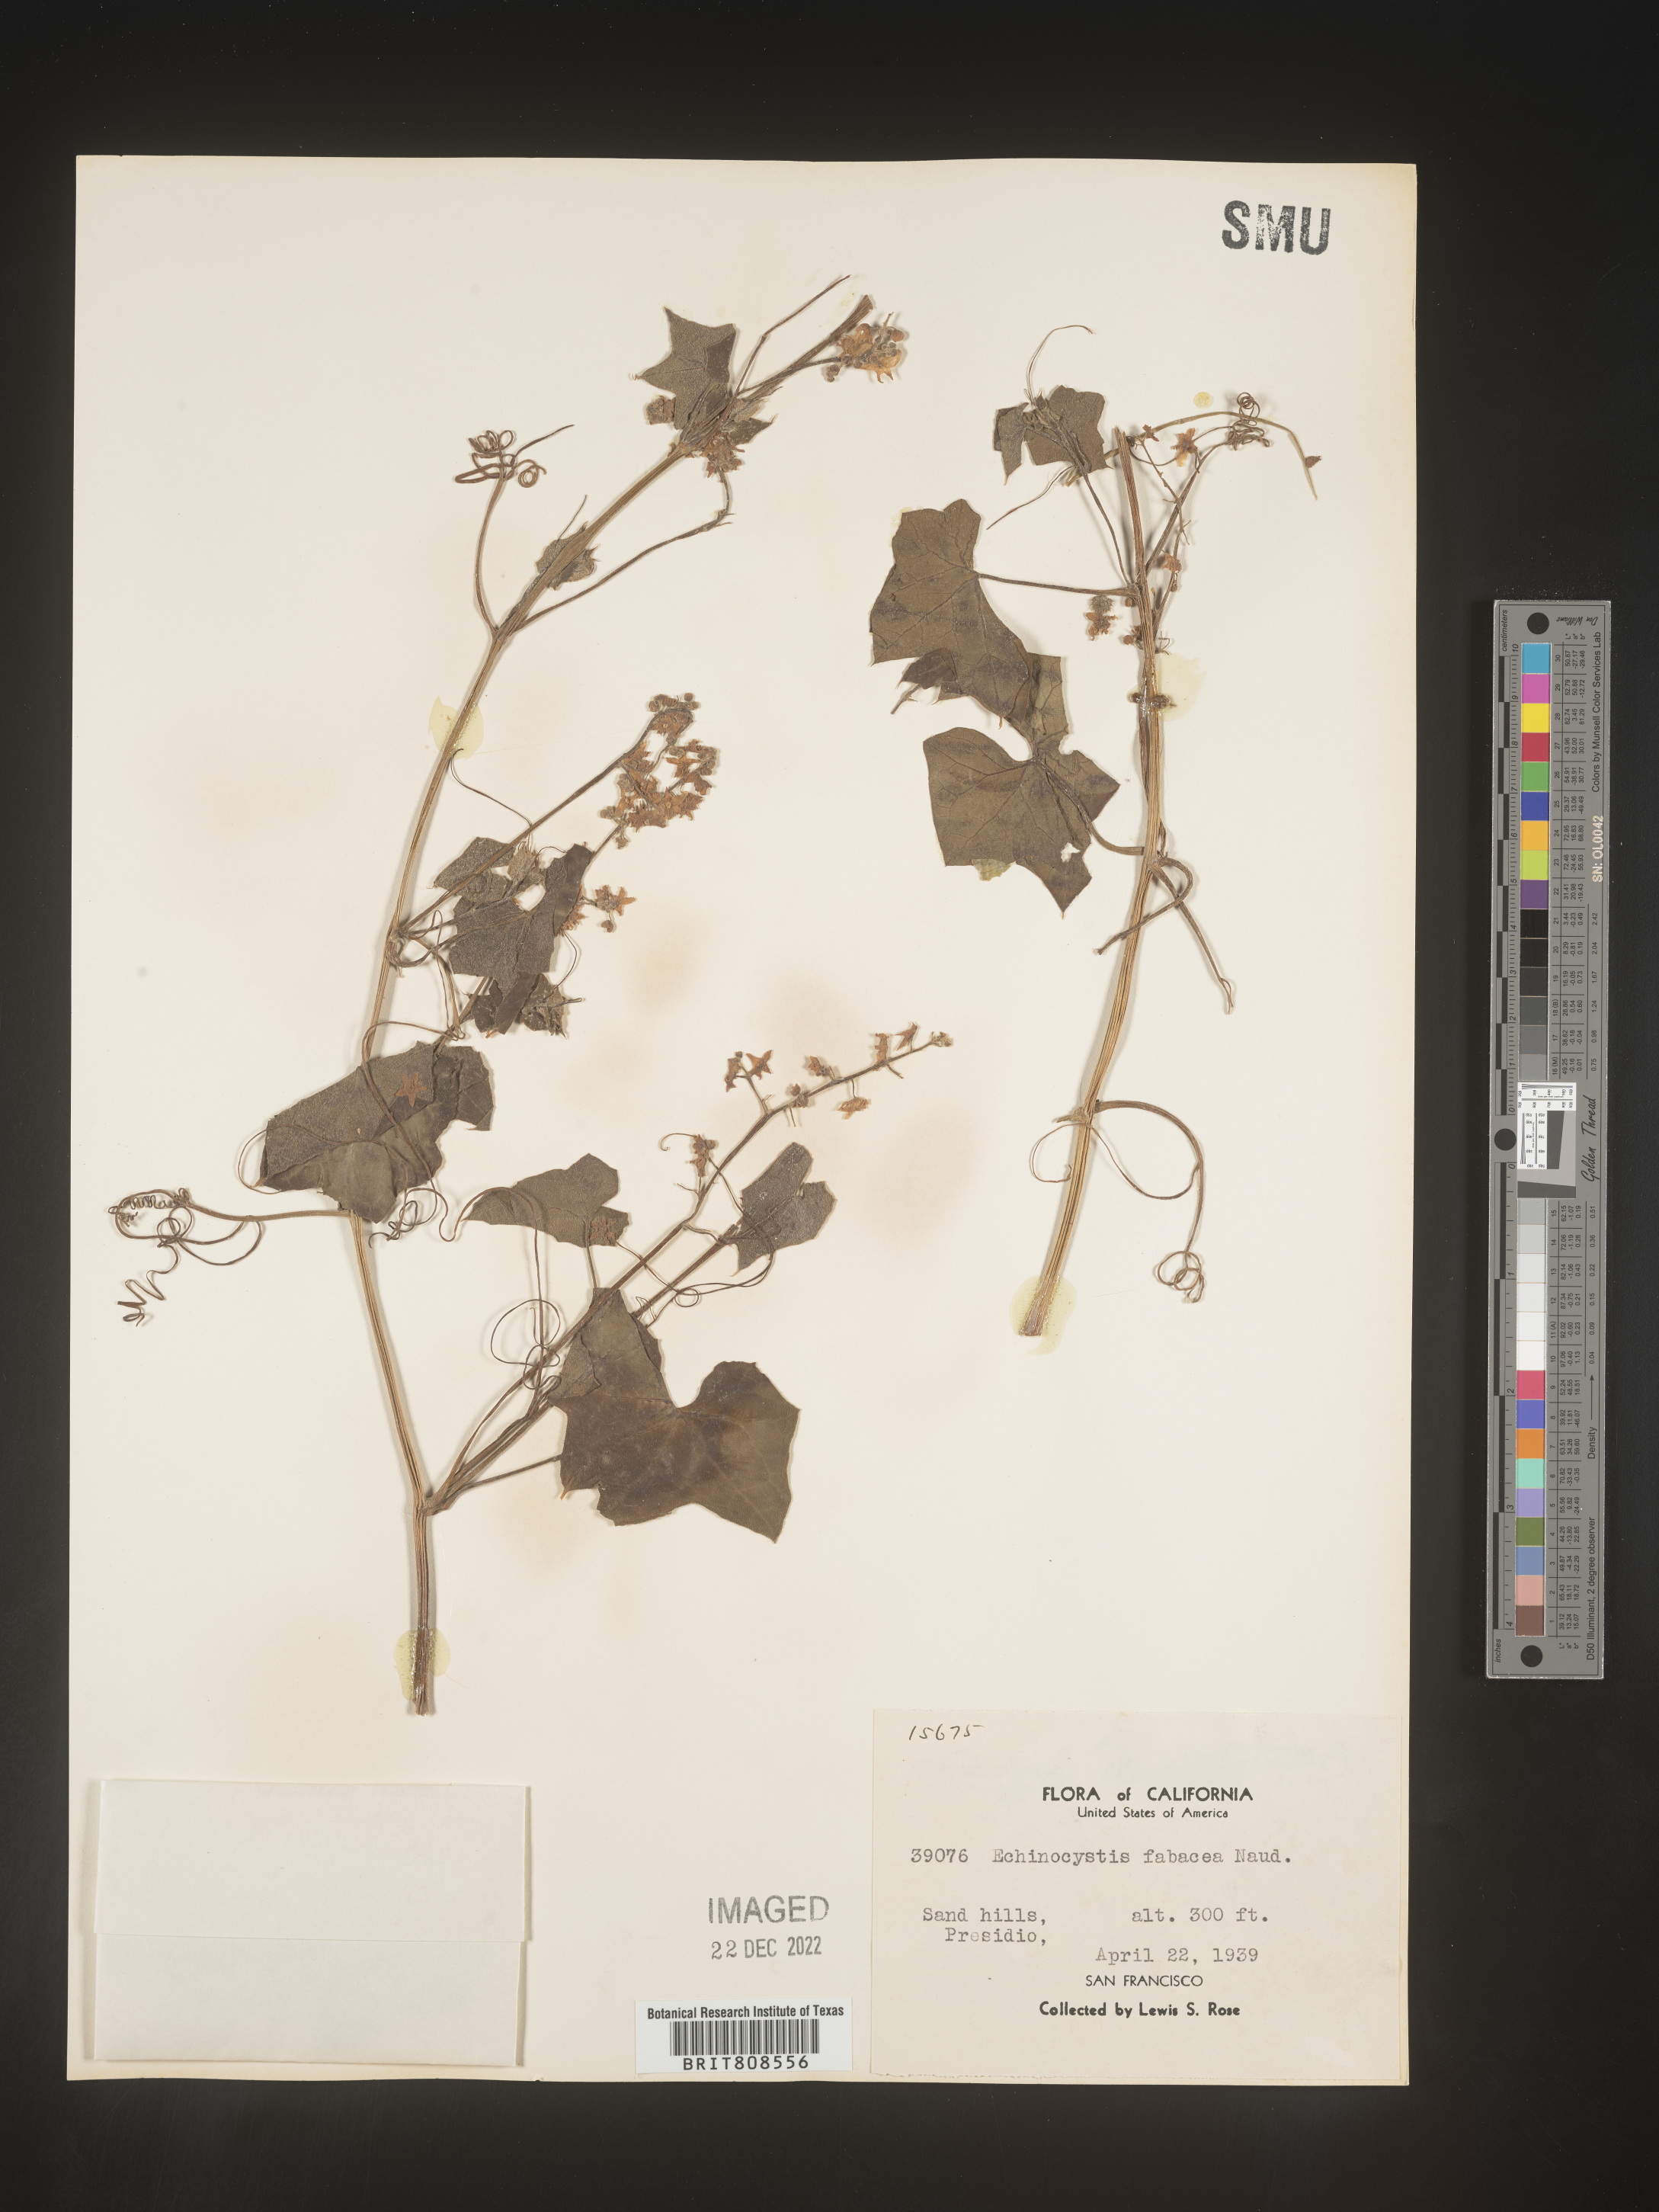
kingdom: Plantae
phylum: Tracheophyta
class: Magnoliopsida
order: Cucurbitales
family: Cucurbitaceae
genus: Marah
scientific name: Marah
